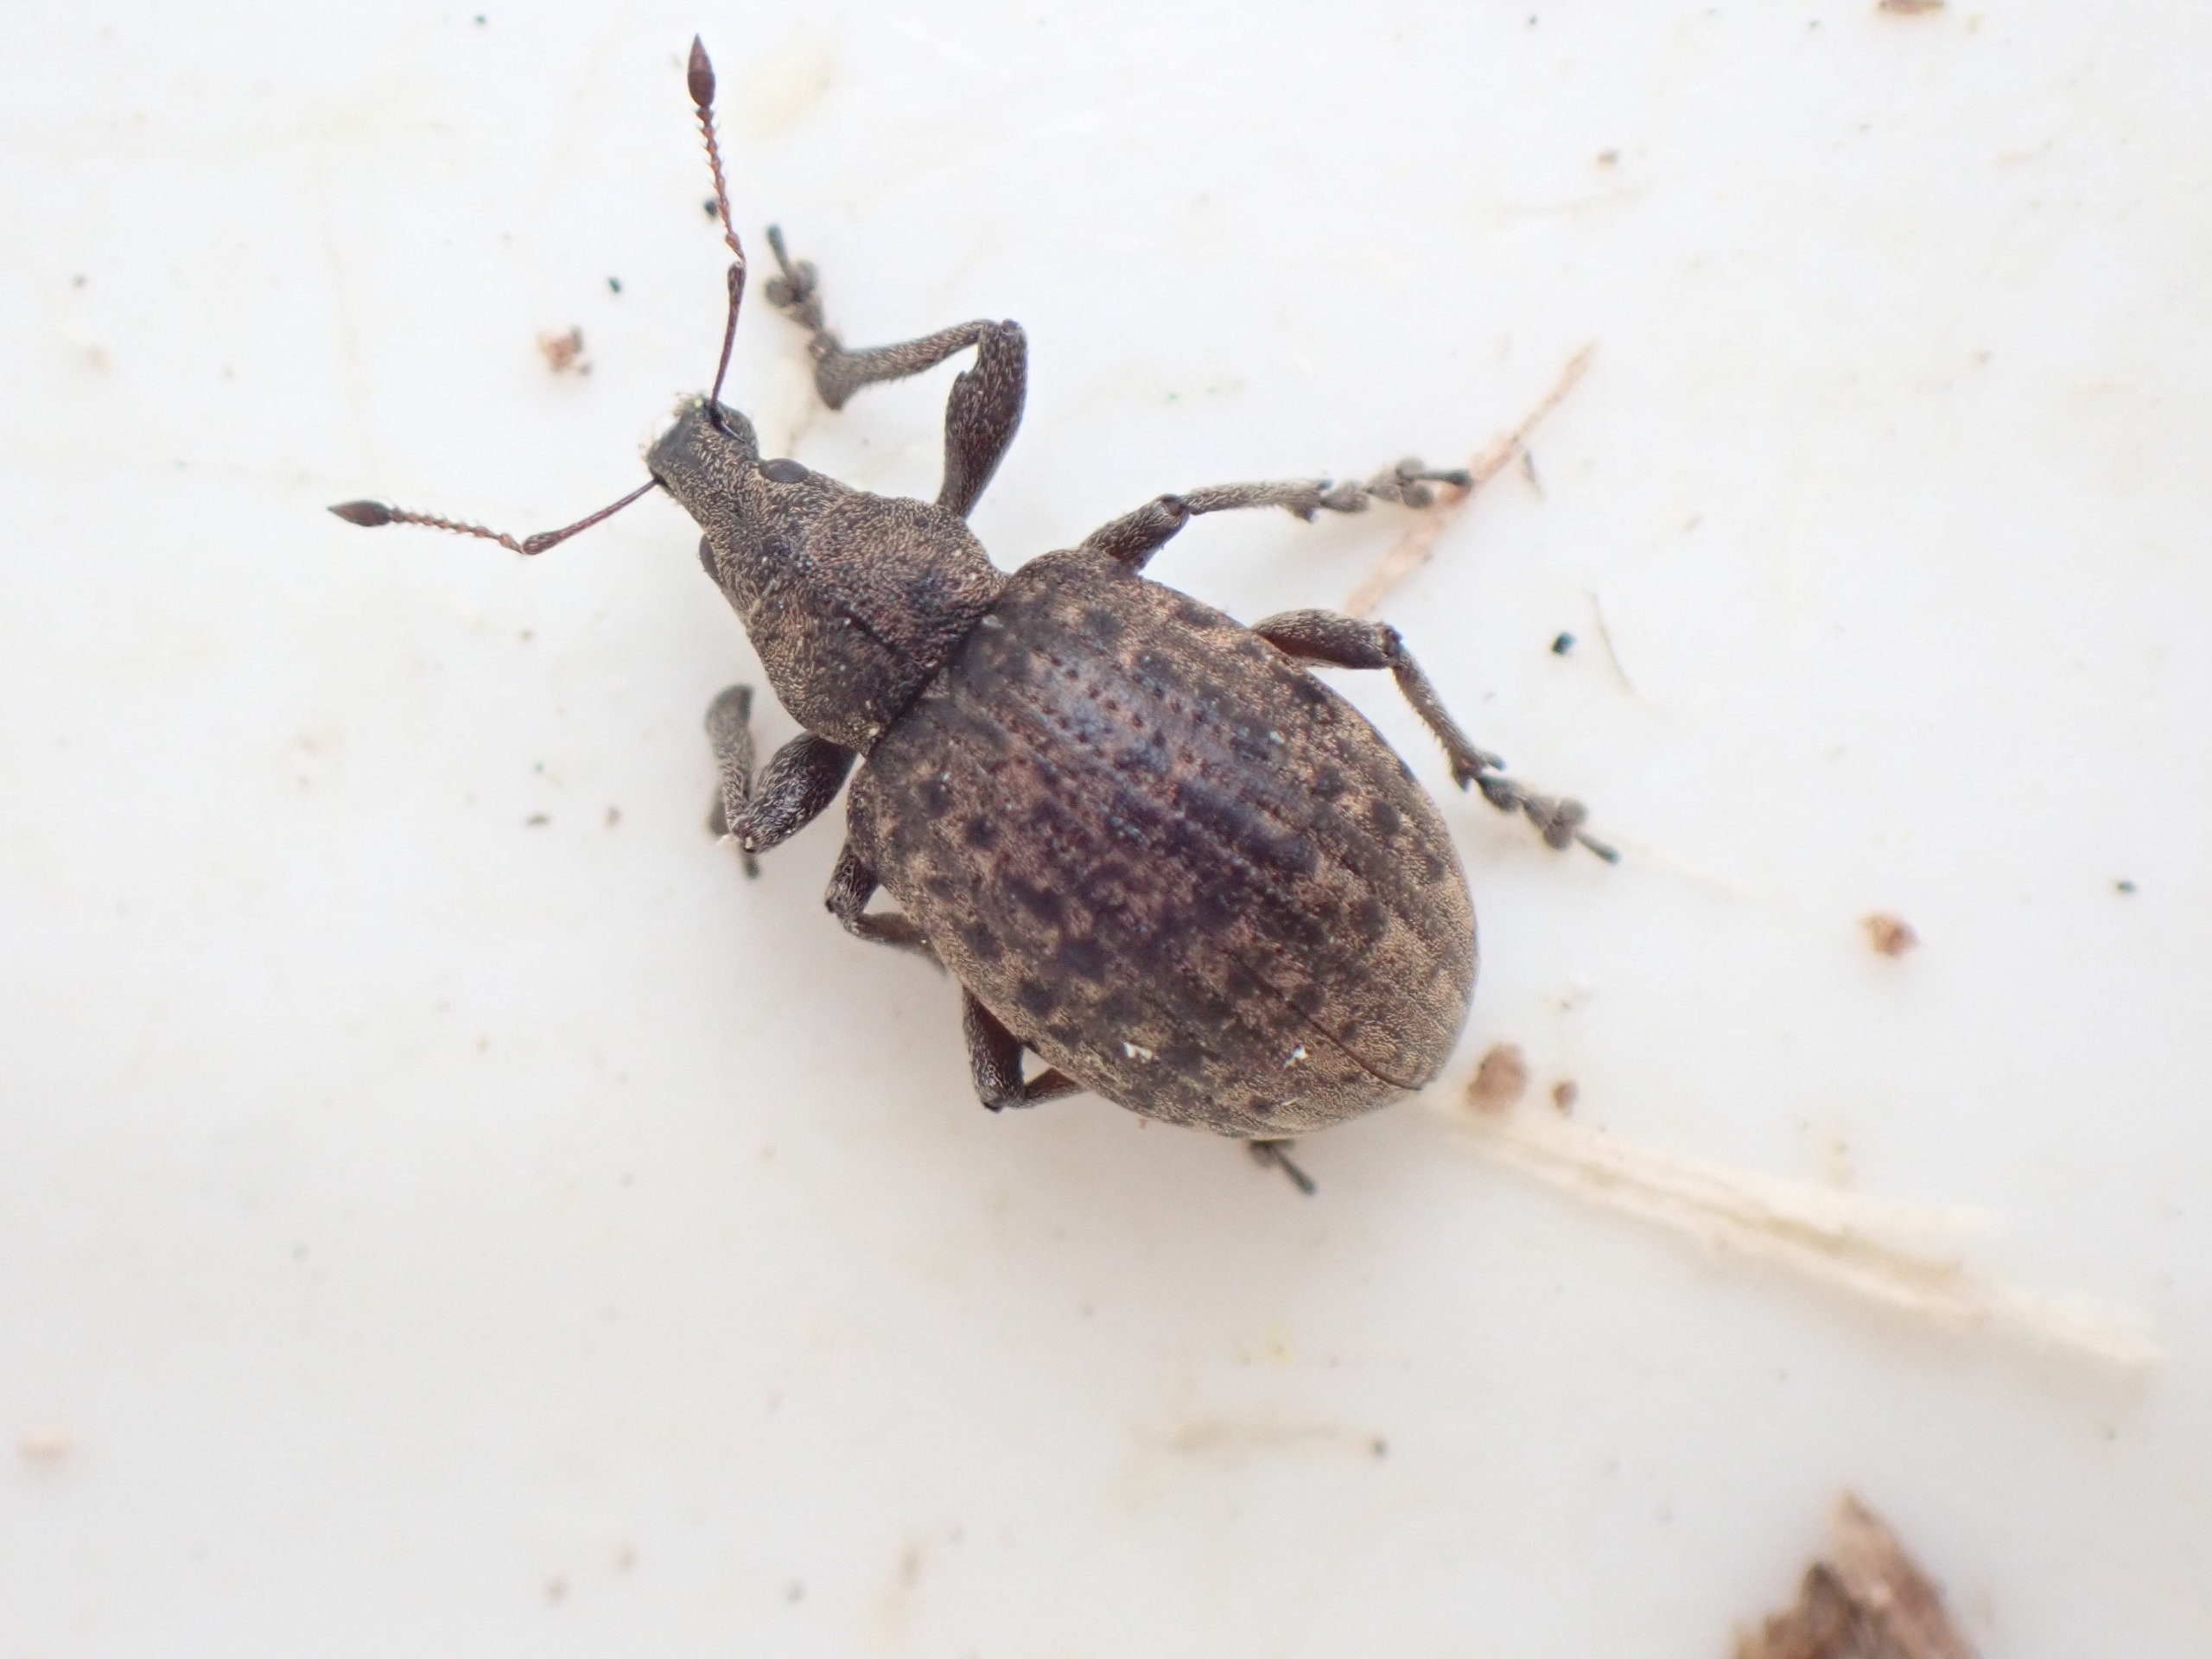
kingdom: Animalia
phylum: Arthropoda
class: Insecta
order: Coleoptera
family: Curculionidae
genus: Liophloeus
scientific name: Liophloeus tessulatus
